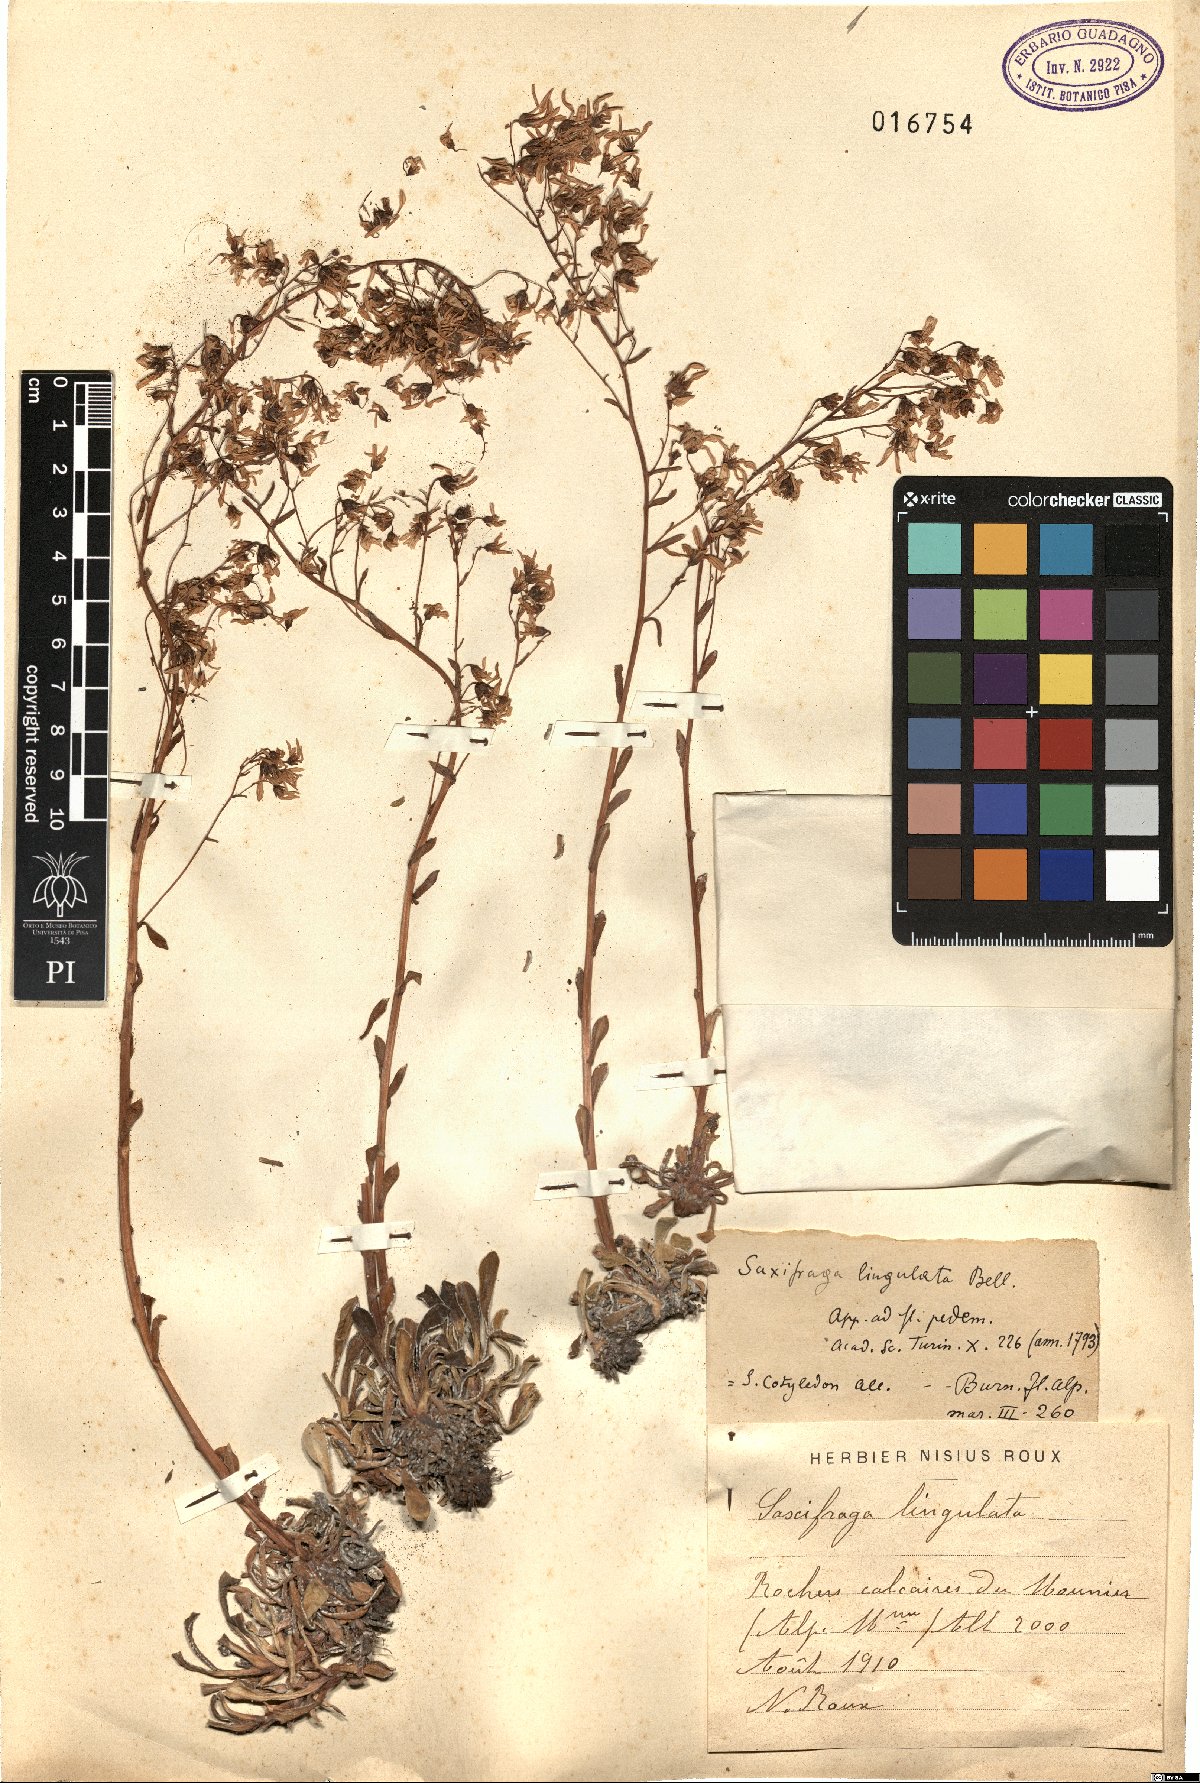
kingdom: Plantae
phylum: Tracheophyta
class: Magnoliopsida
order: Saxifragales
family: Saxifragaceae
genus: Saxifraga
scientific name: Saxifraga callosa
